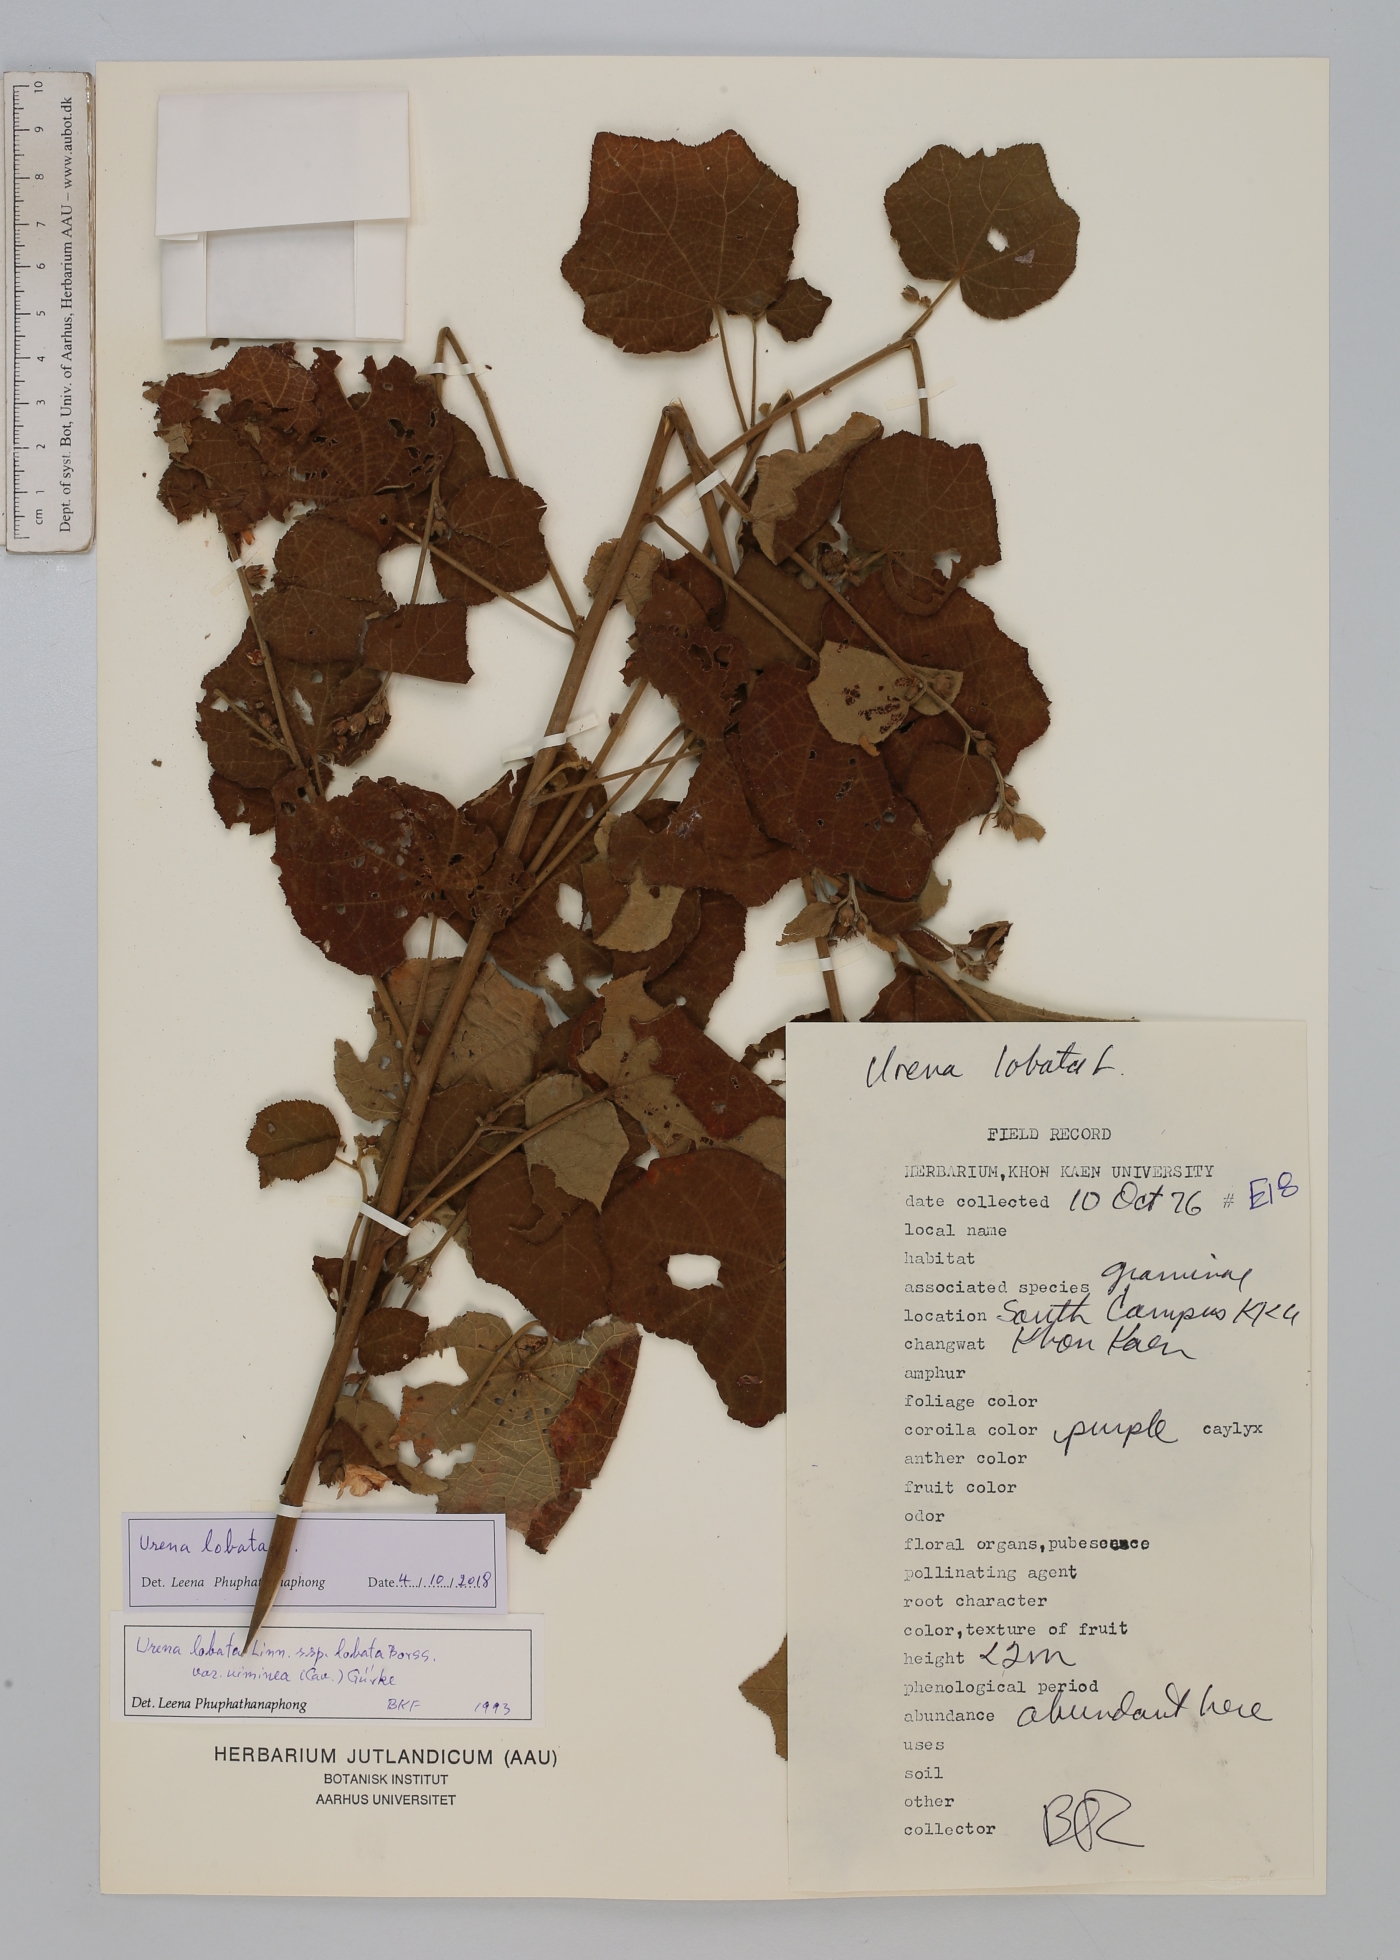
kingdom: Plantae
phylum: Tracheophyta
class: Magnoliopsida
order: Malvales
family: Malvaceae
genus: Urena
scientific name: Urena lobata
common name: Caesarweed
